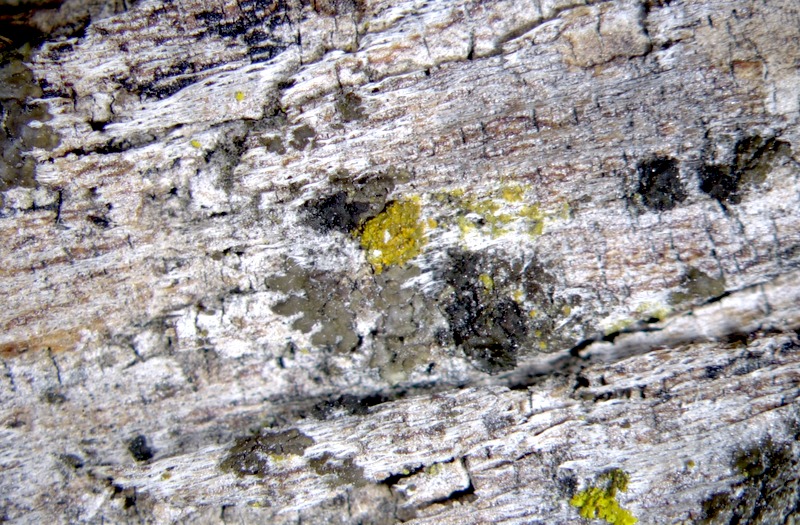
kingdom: Fungi
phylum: Ascomycota
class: Candelariomycetes
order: Candelariales
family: Candelariaceae
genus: Candelaria
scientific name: Candelaria concolor
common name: Candleflame lichen
